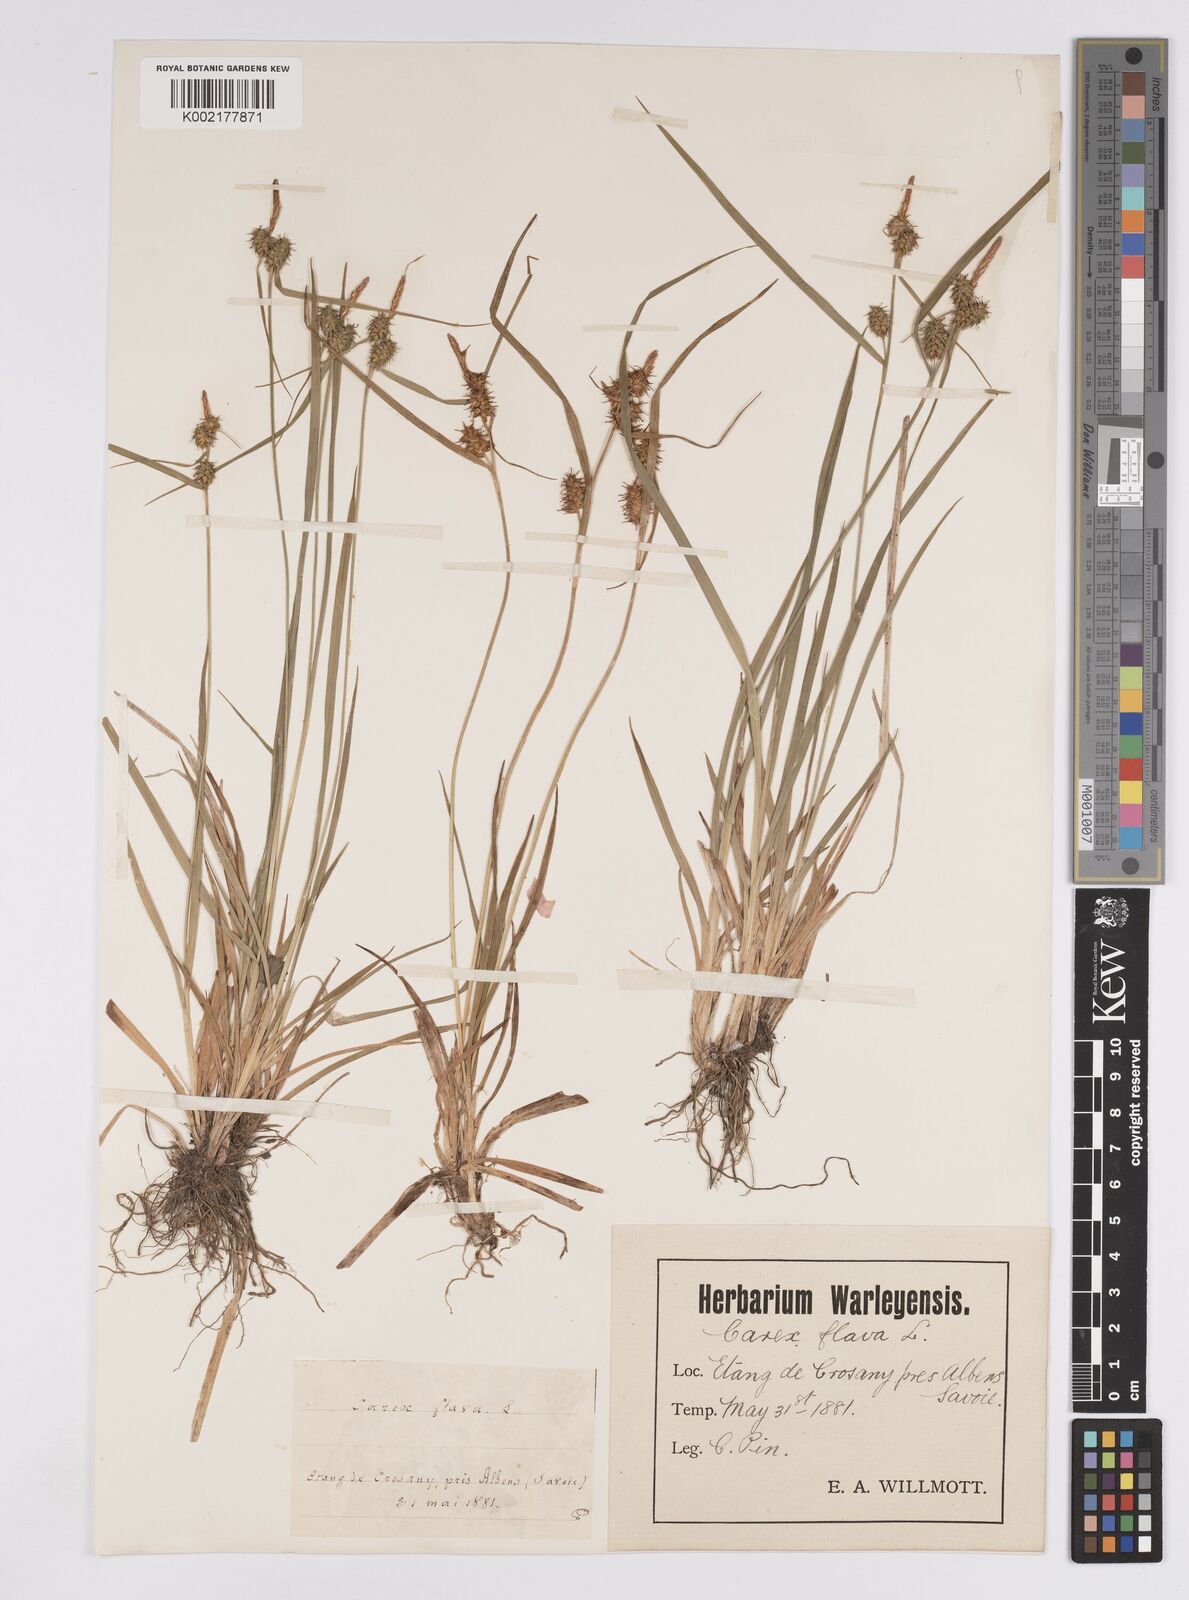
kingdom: Plantae
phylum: Tracheophyta
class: Liliopsida
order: Poales
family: Cyperaceae
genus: Carex
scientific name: Carex flava
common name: Large yellow-sedge
